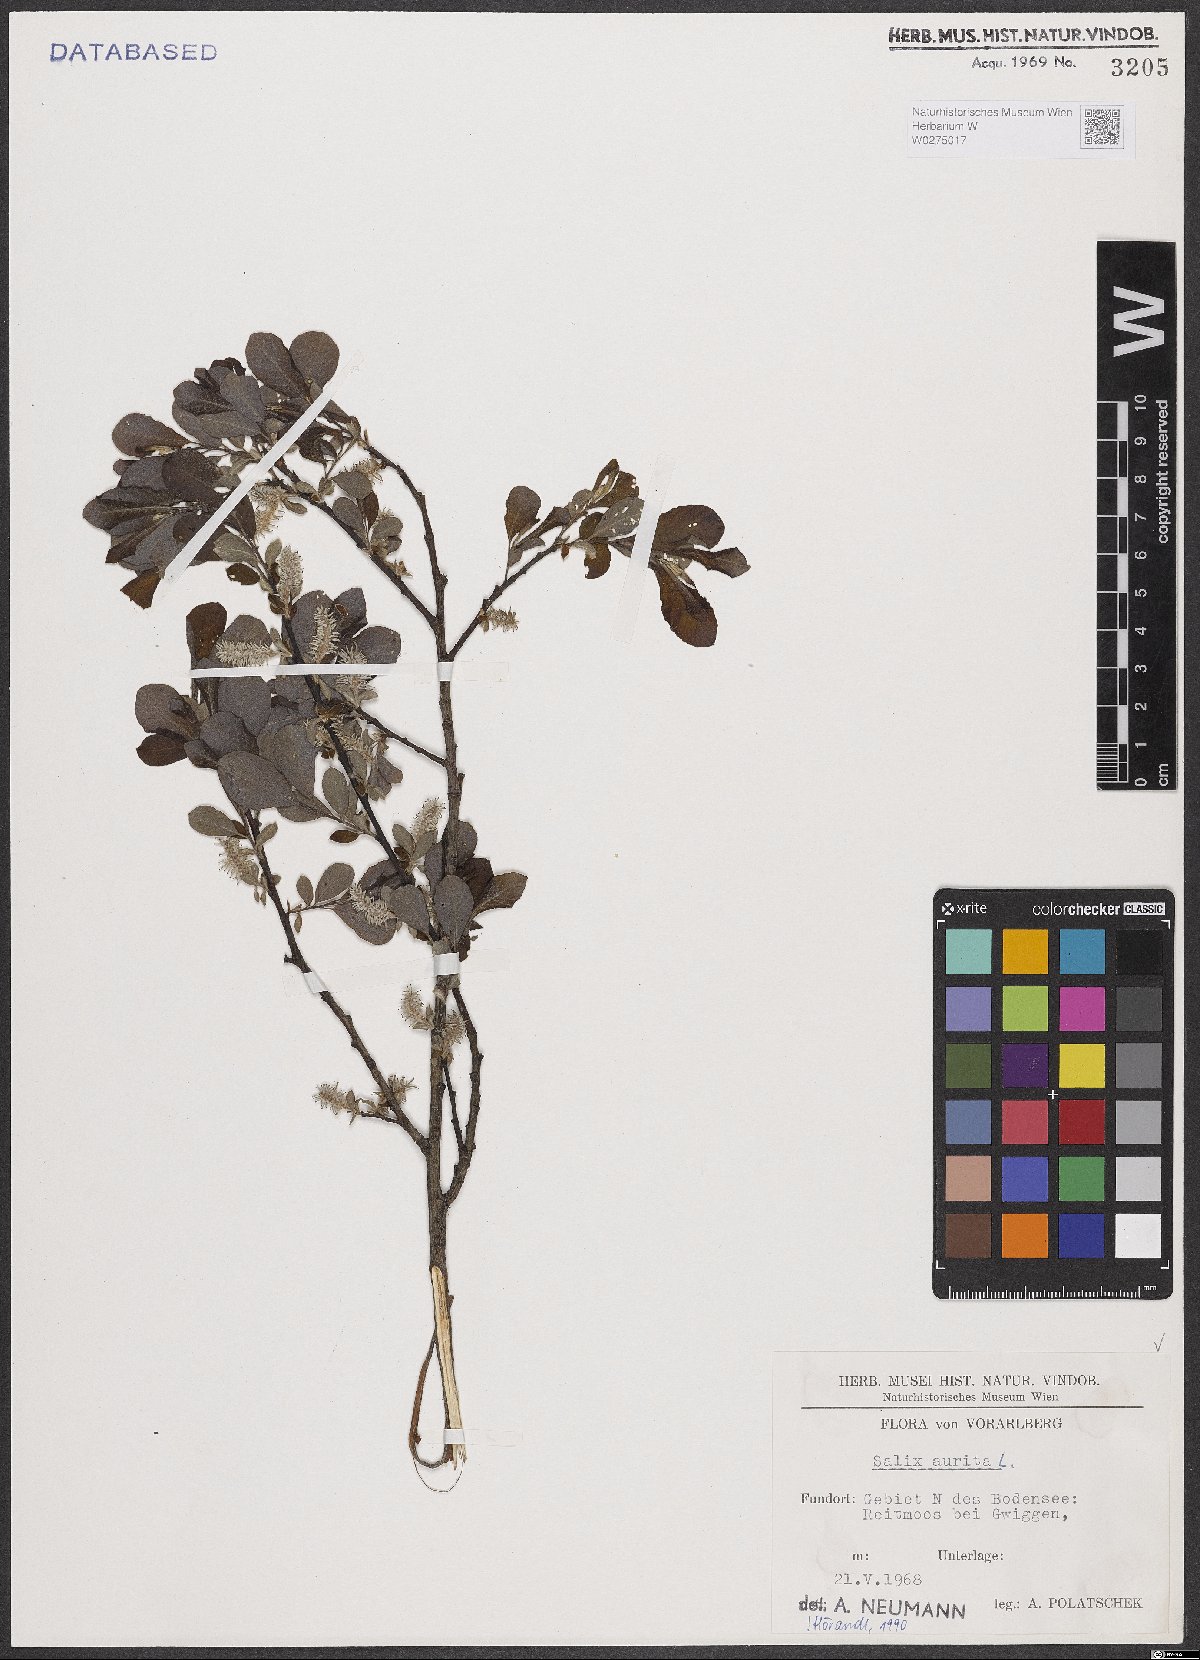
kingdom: Plantae
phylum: Tracheophyta
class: Magnoliopsida
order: Malpighiales
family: Salicaceae
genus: Salix
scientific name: Salix aurita
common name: Eared willow
